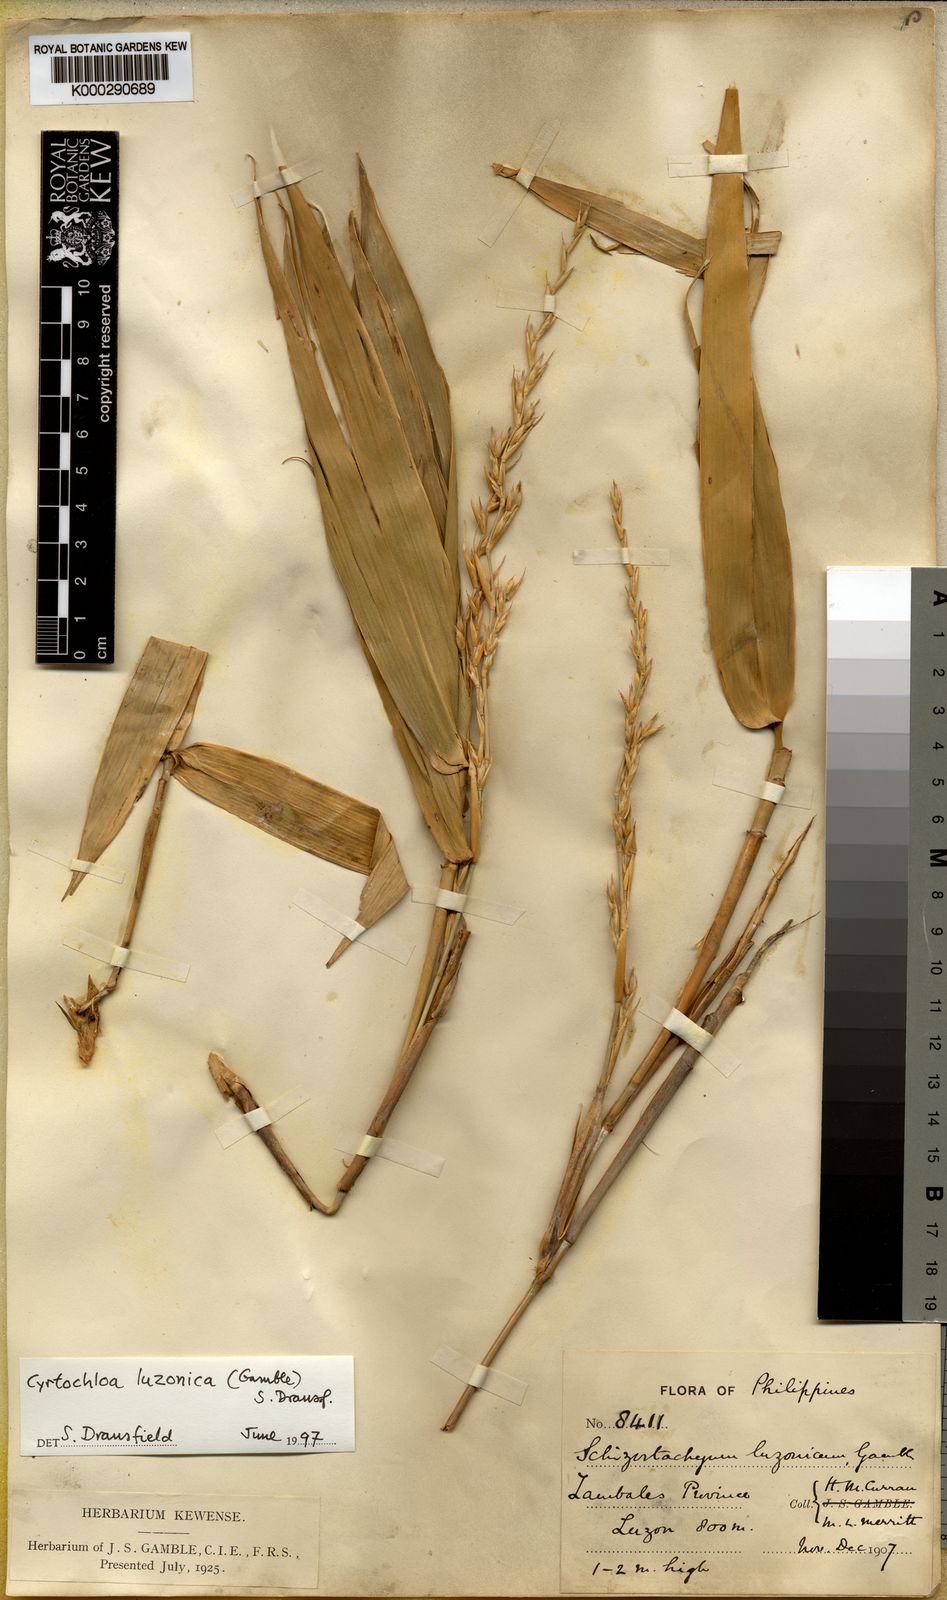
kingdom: Plantae
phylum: Tracheophyta
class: Liliopsida
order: Poales
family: Poaceae
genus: Cyrtochloa
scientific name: Cyrtochloa luzonica
